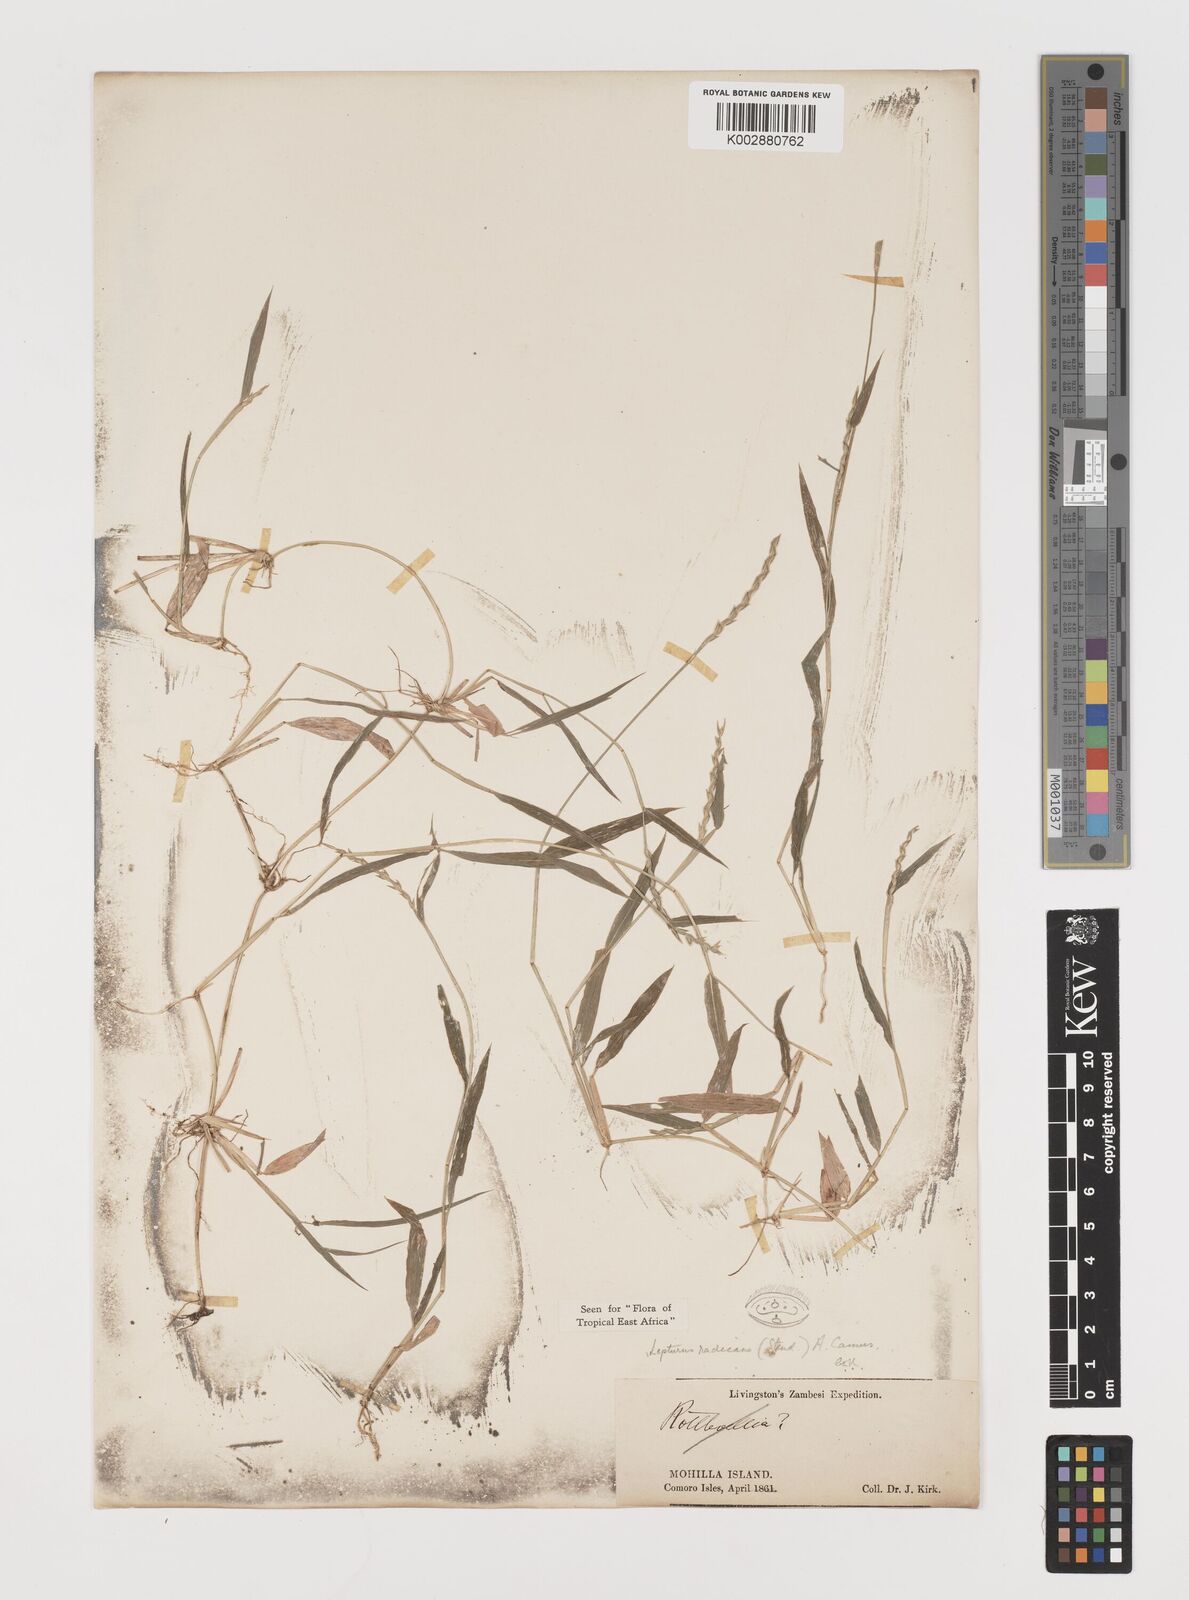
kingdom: Plantae
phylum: Tracheophyta
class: Liliopsida
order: Poales
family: Poaceae
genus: Lepturus
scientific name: Lepturus radicans
